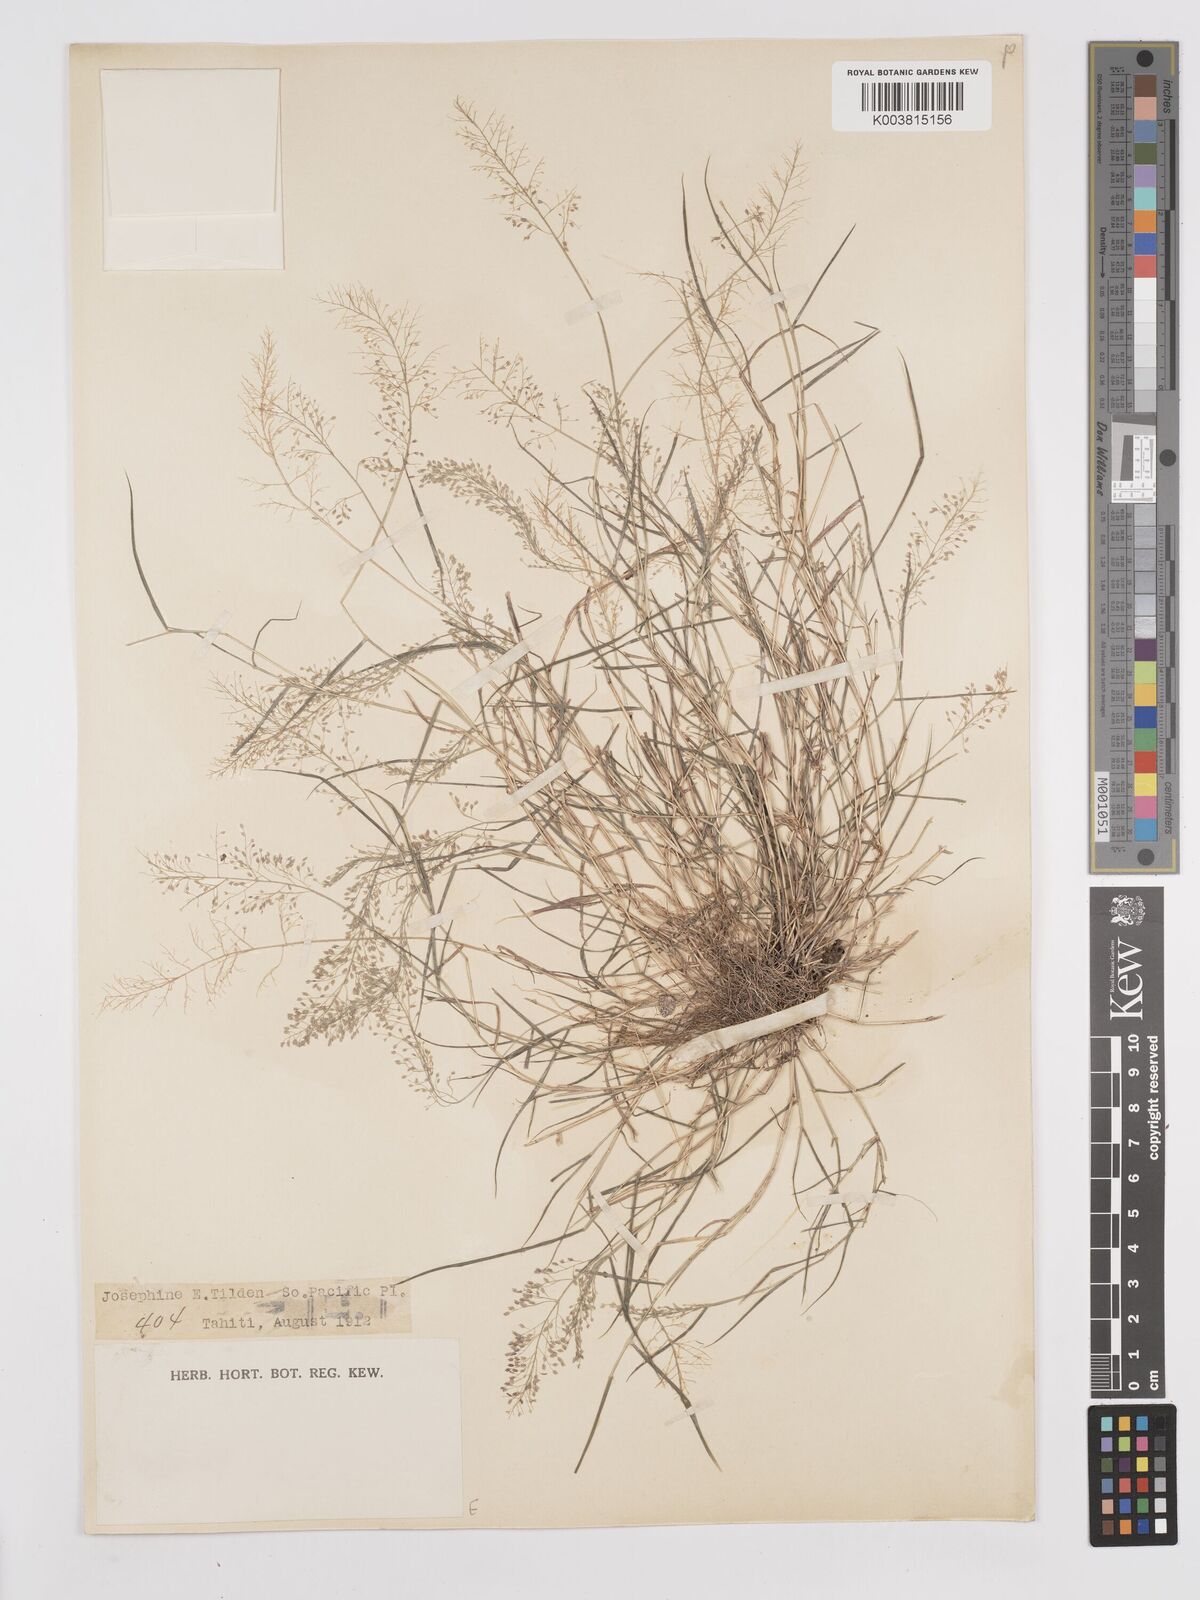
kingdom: Plantae
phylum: Tracheophyta
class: Liliopsida
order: Poales
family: Poaceae
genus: Eragrostis
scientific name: Eragrostis tenella
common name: Japanese lovegrass
